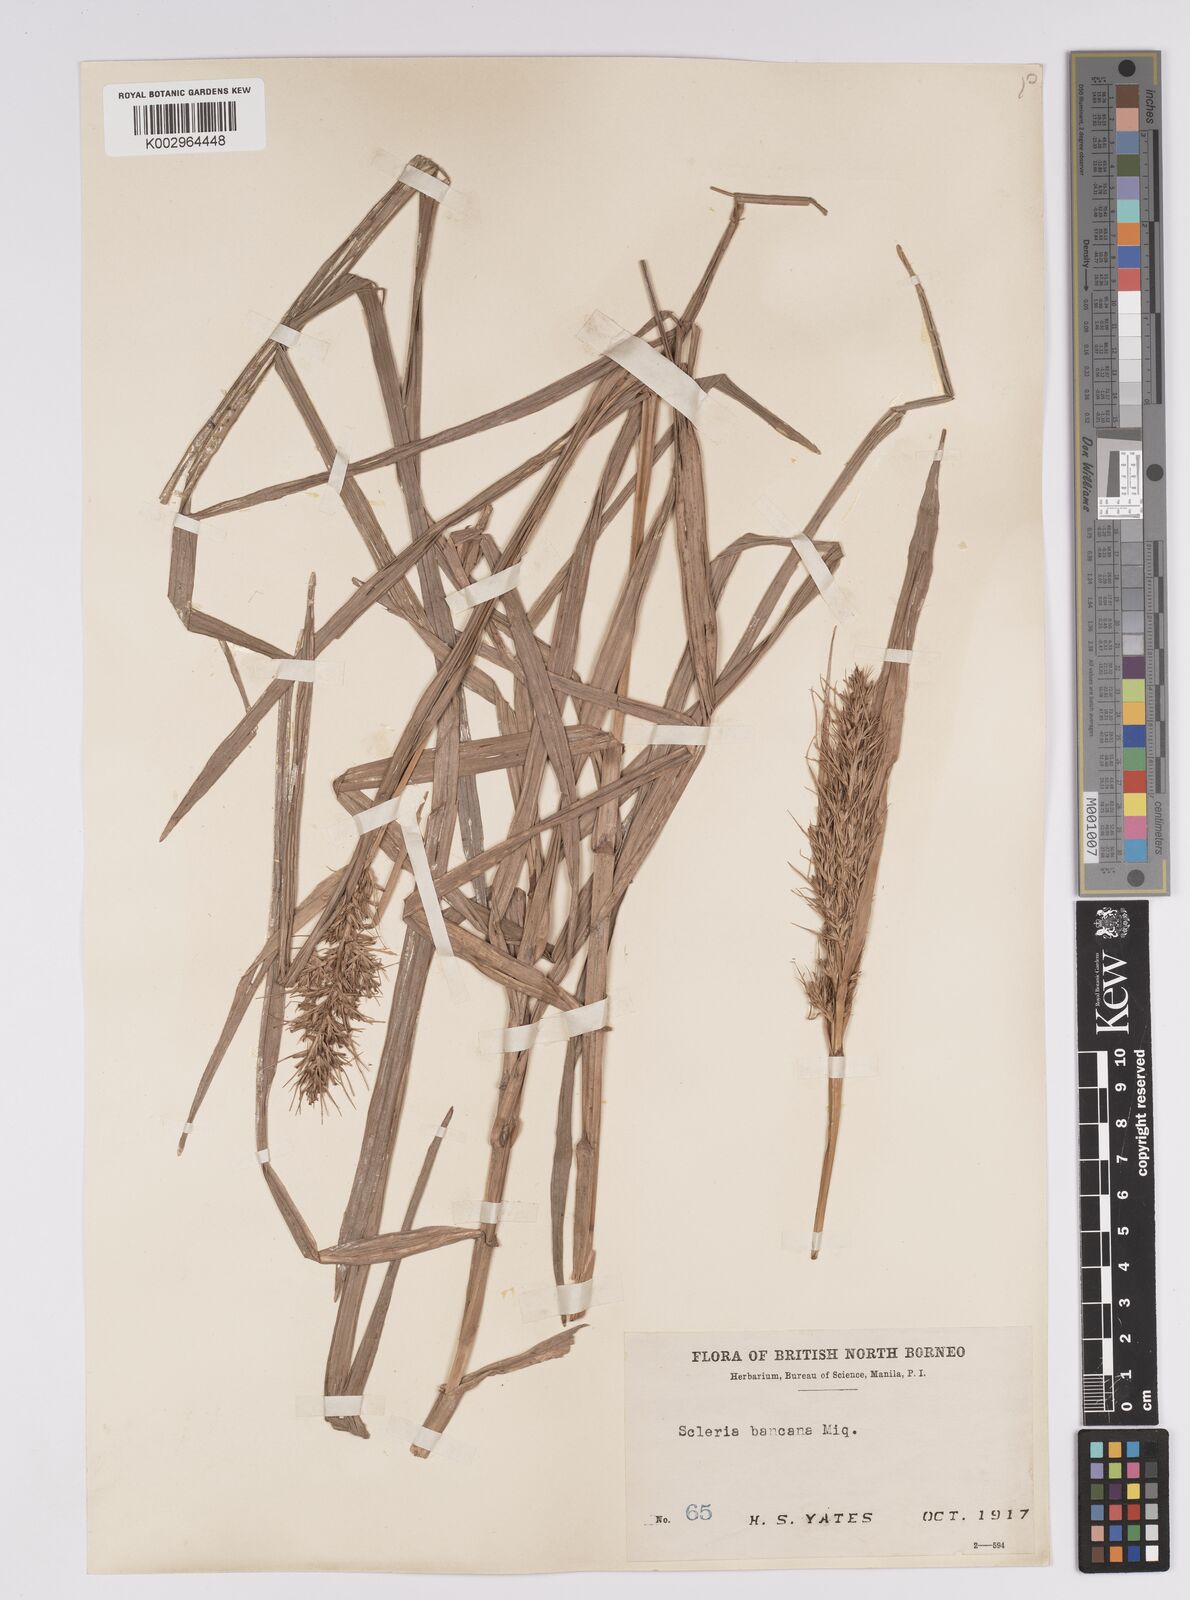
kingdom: Plantae
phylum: Tracheophyta
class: Liliopsida
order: Poales
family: Cyperaceae
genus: Scleria
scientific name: Scleria ciliaris
